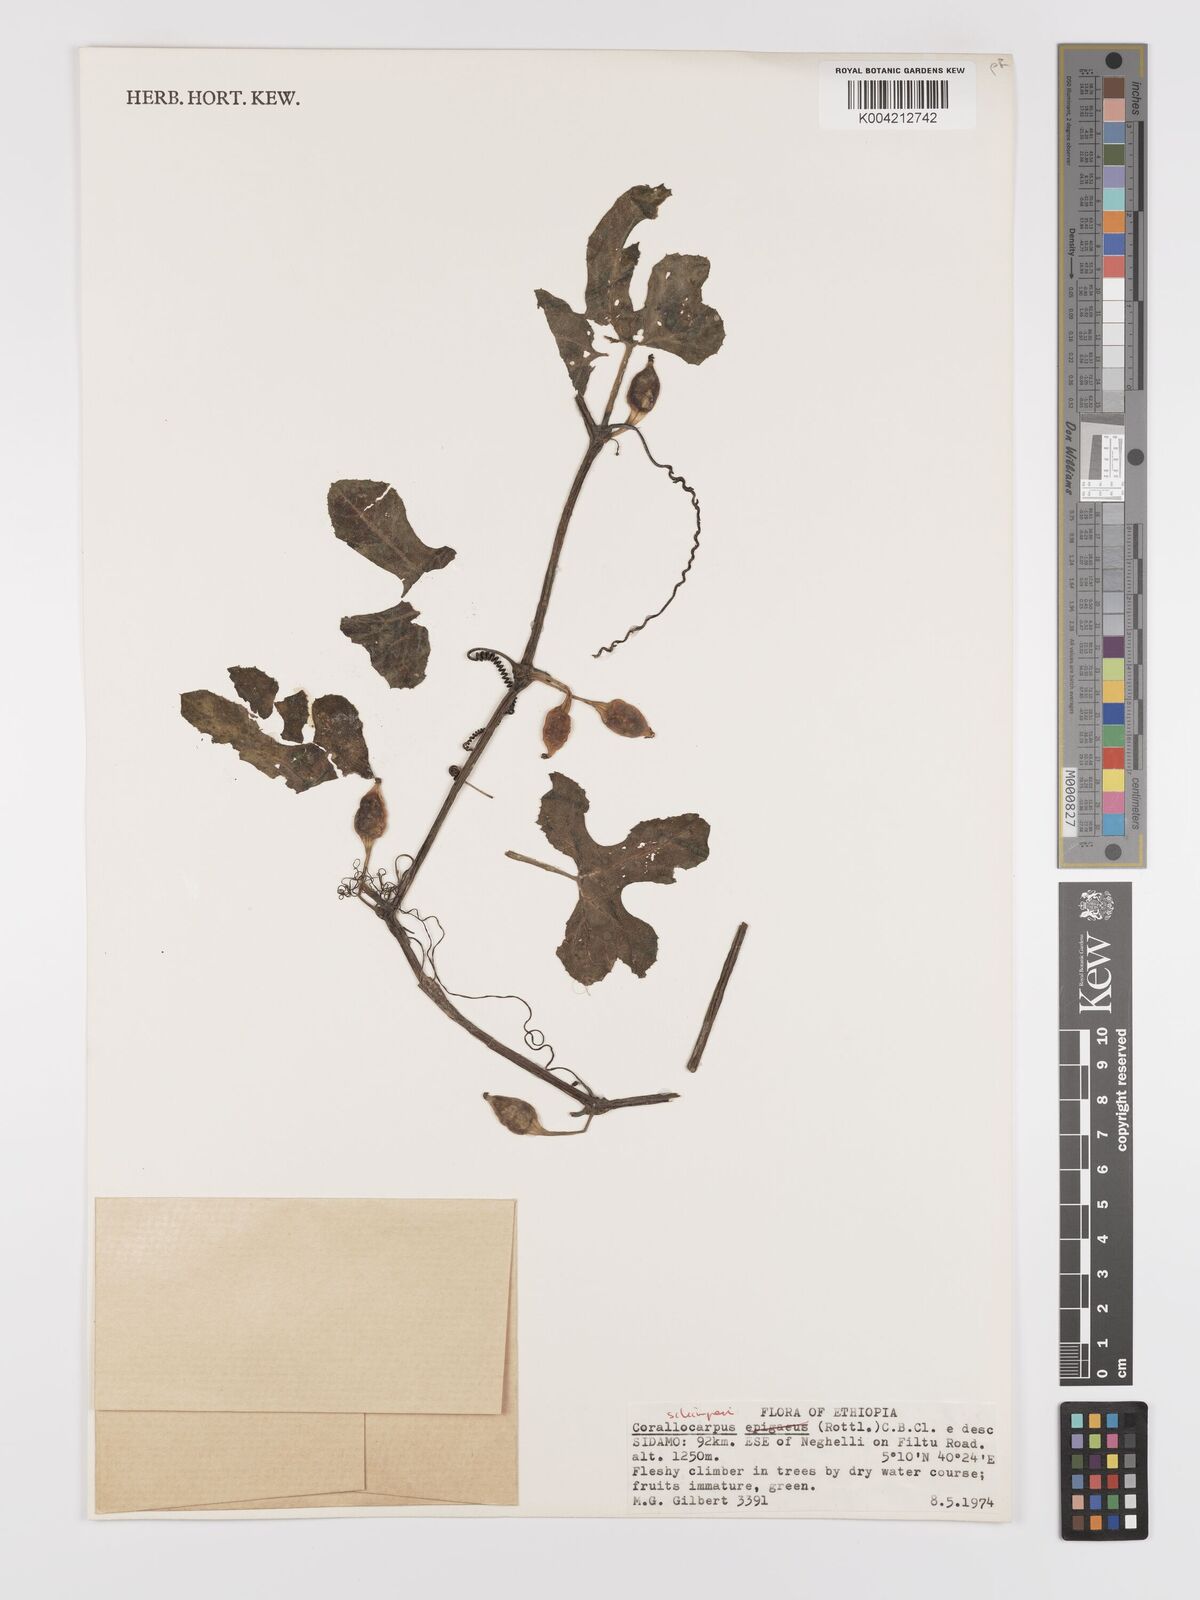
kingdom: Plantae
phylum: Tracheophyta
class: Magnoliopsida
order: Cucurbitales
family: Cucurbitaceae
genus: Corallocarpus
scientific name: Corallocarpus schimperi
